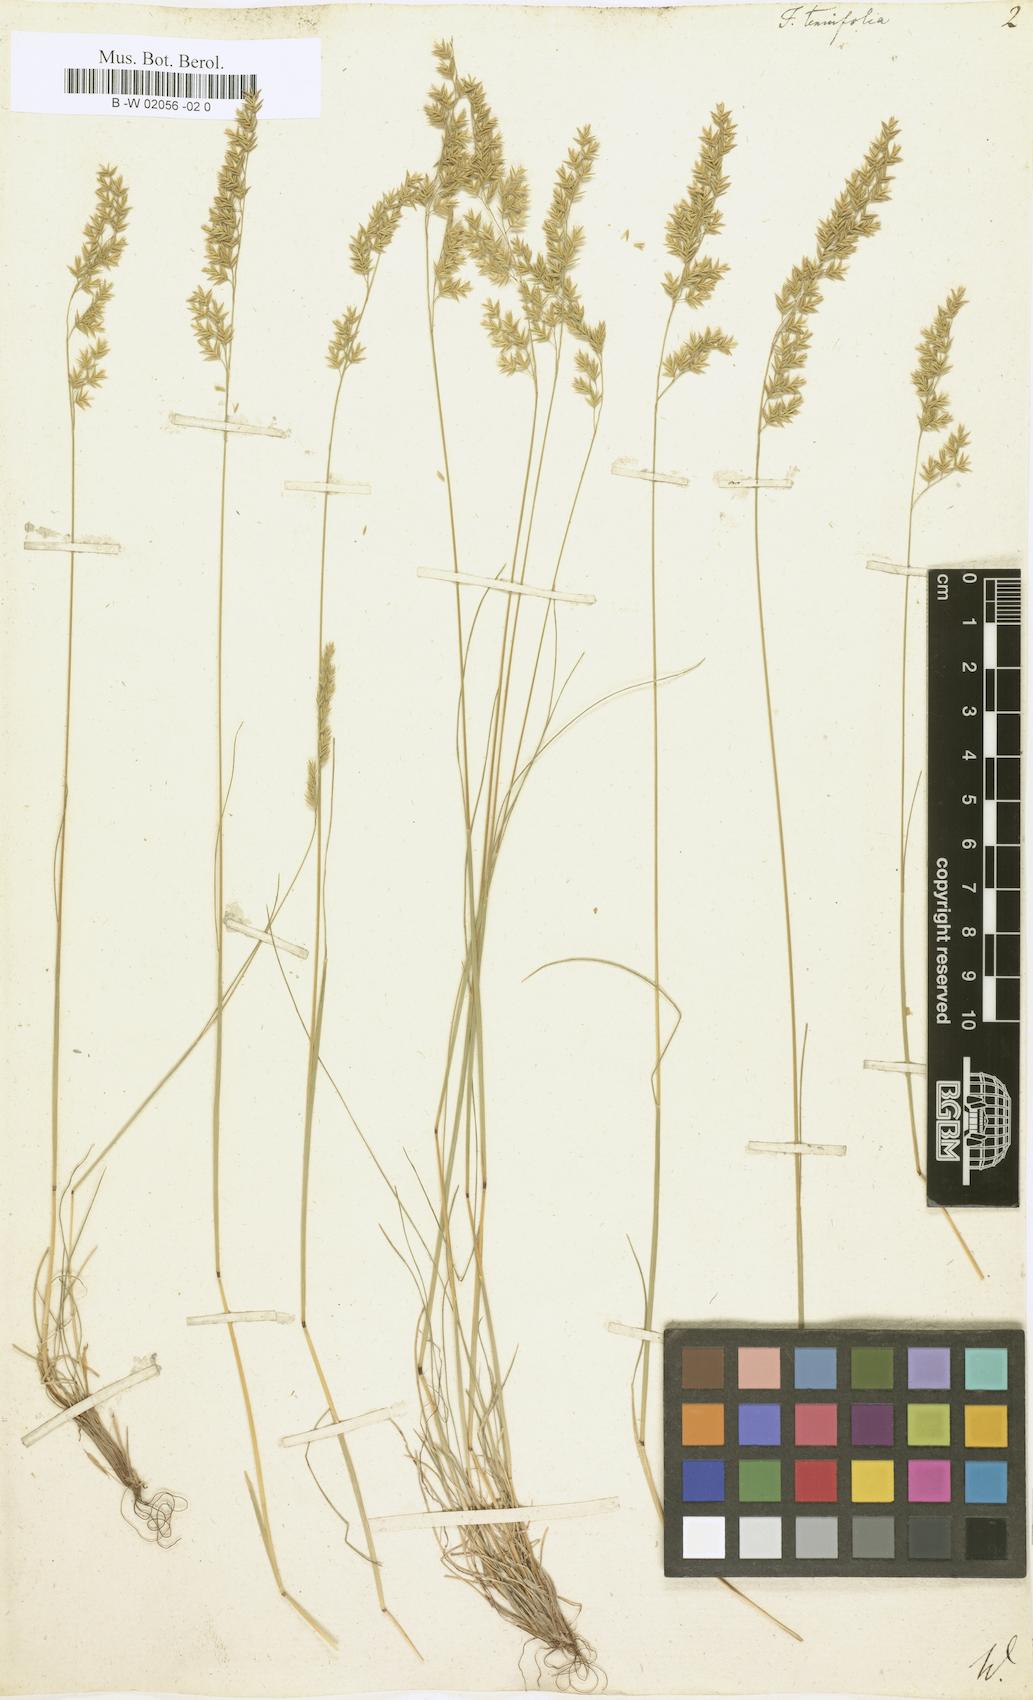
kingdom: Plantae
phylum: Tracheophyta
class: Liliopsida
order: Poales
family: Poaceae
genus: Festuca
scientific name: Festuca
